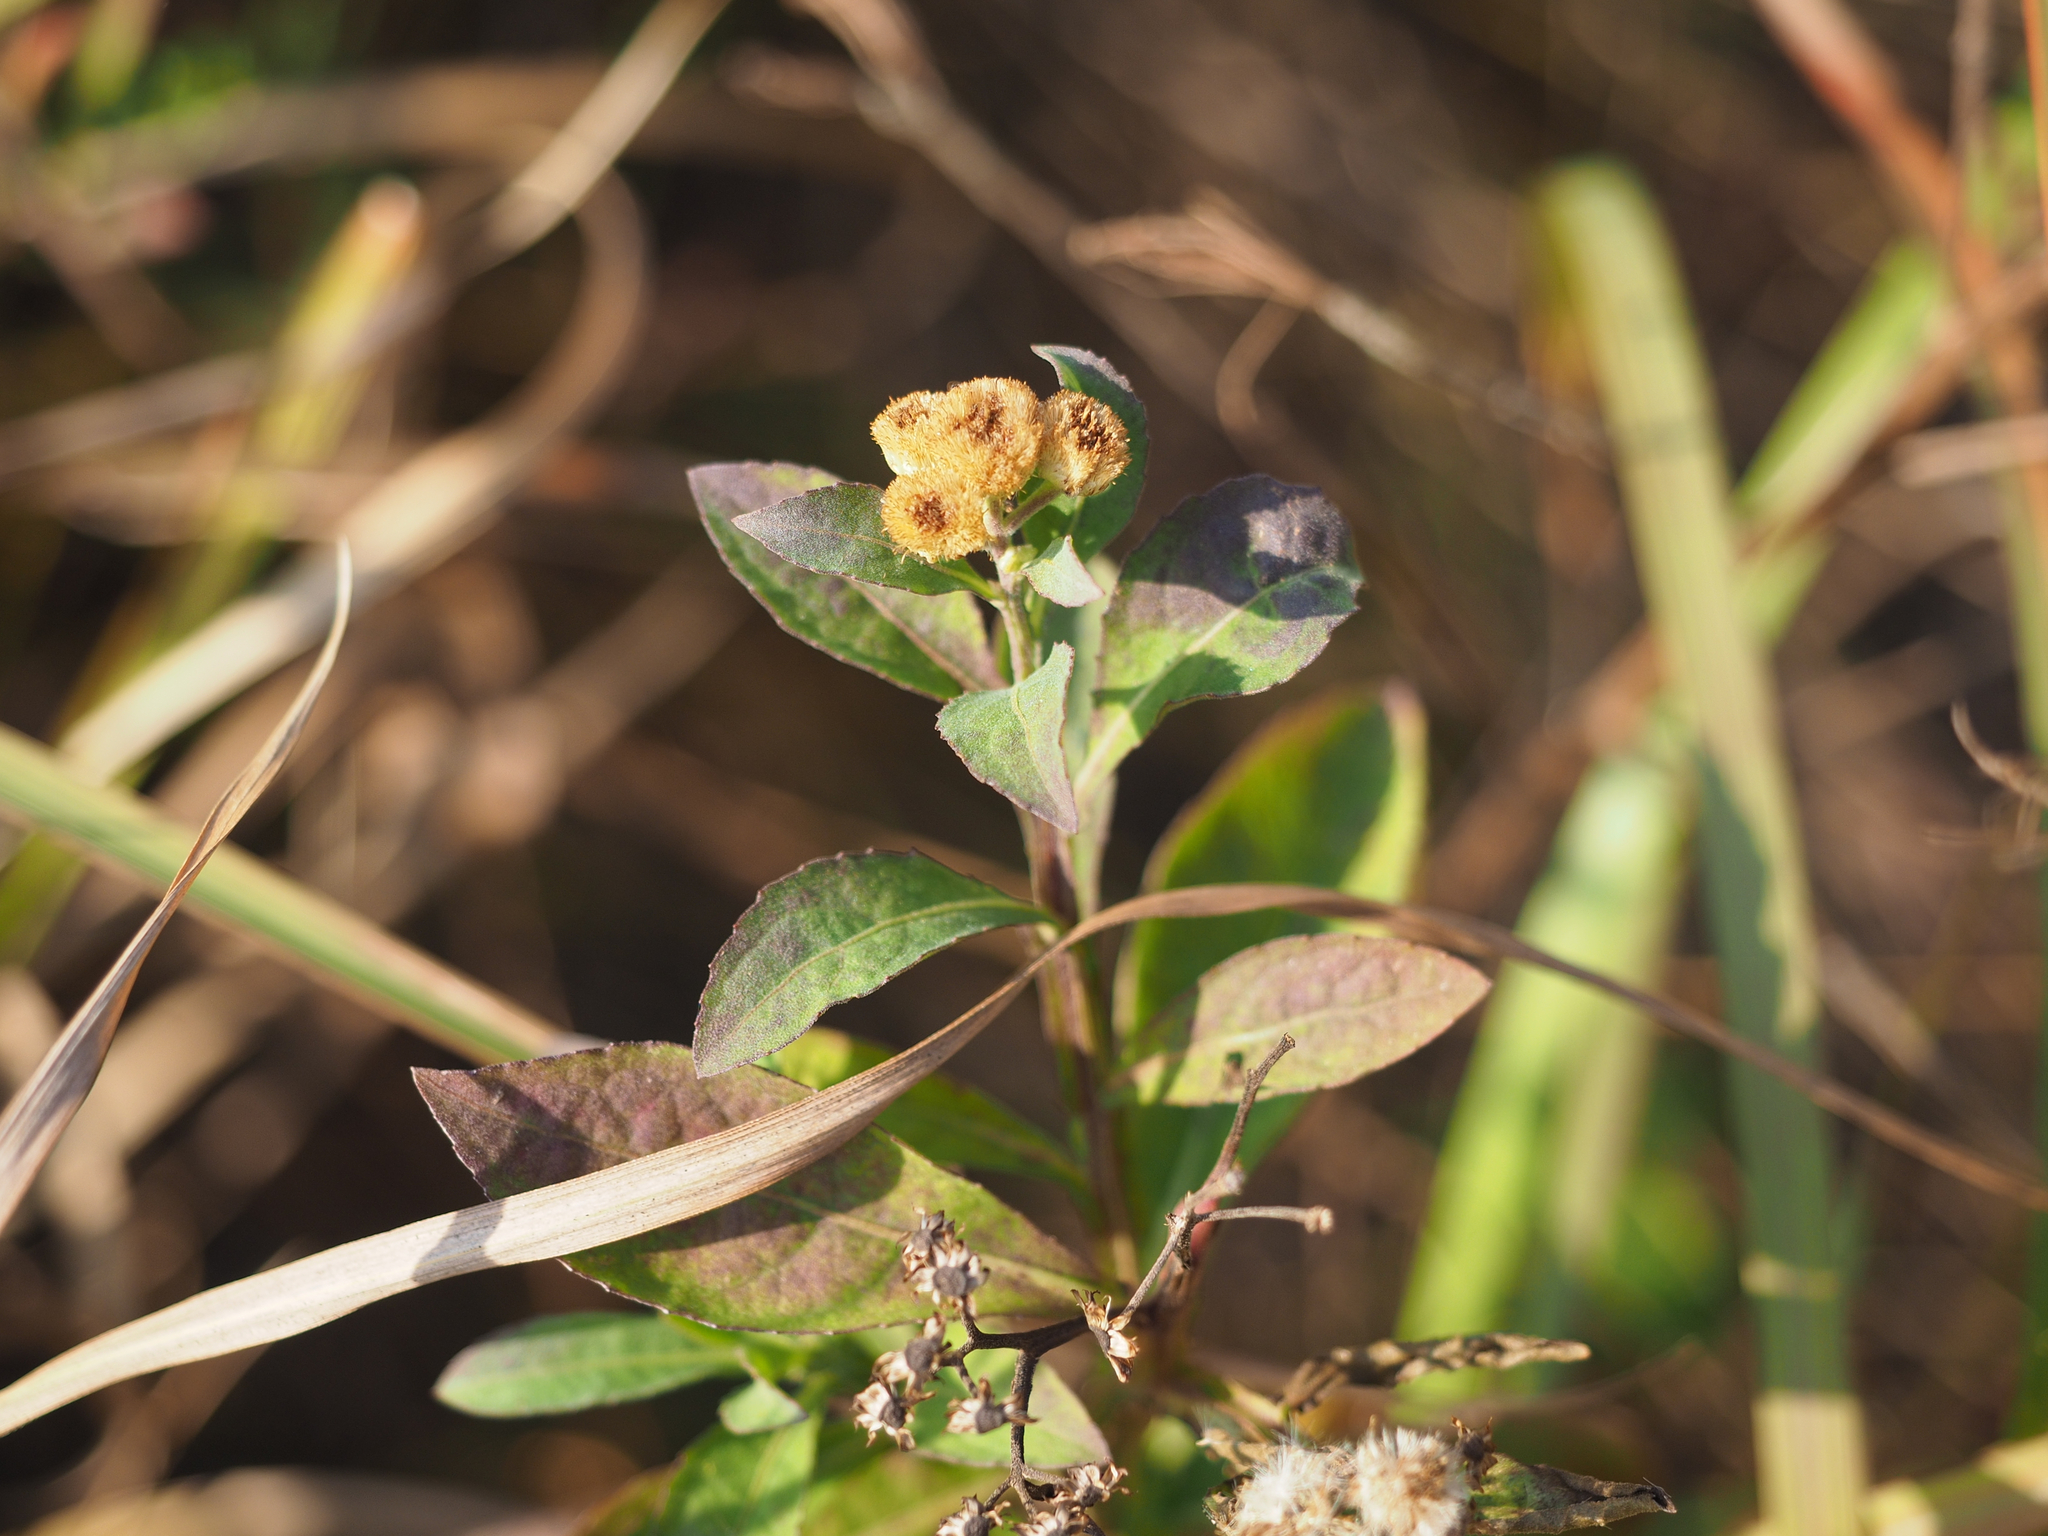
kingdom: Plantae
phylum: Tracheophyta
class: Magnoliopsida
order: Asterales
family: Asteraceae
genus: Pluchea
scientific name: Pluchea sagittalis
